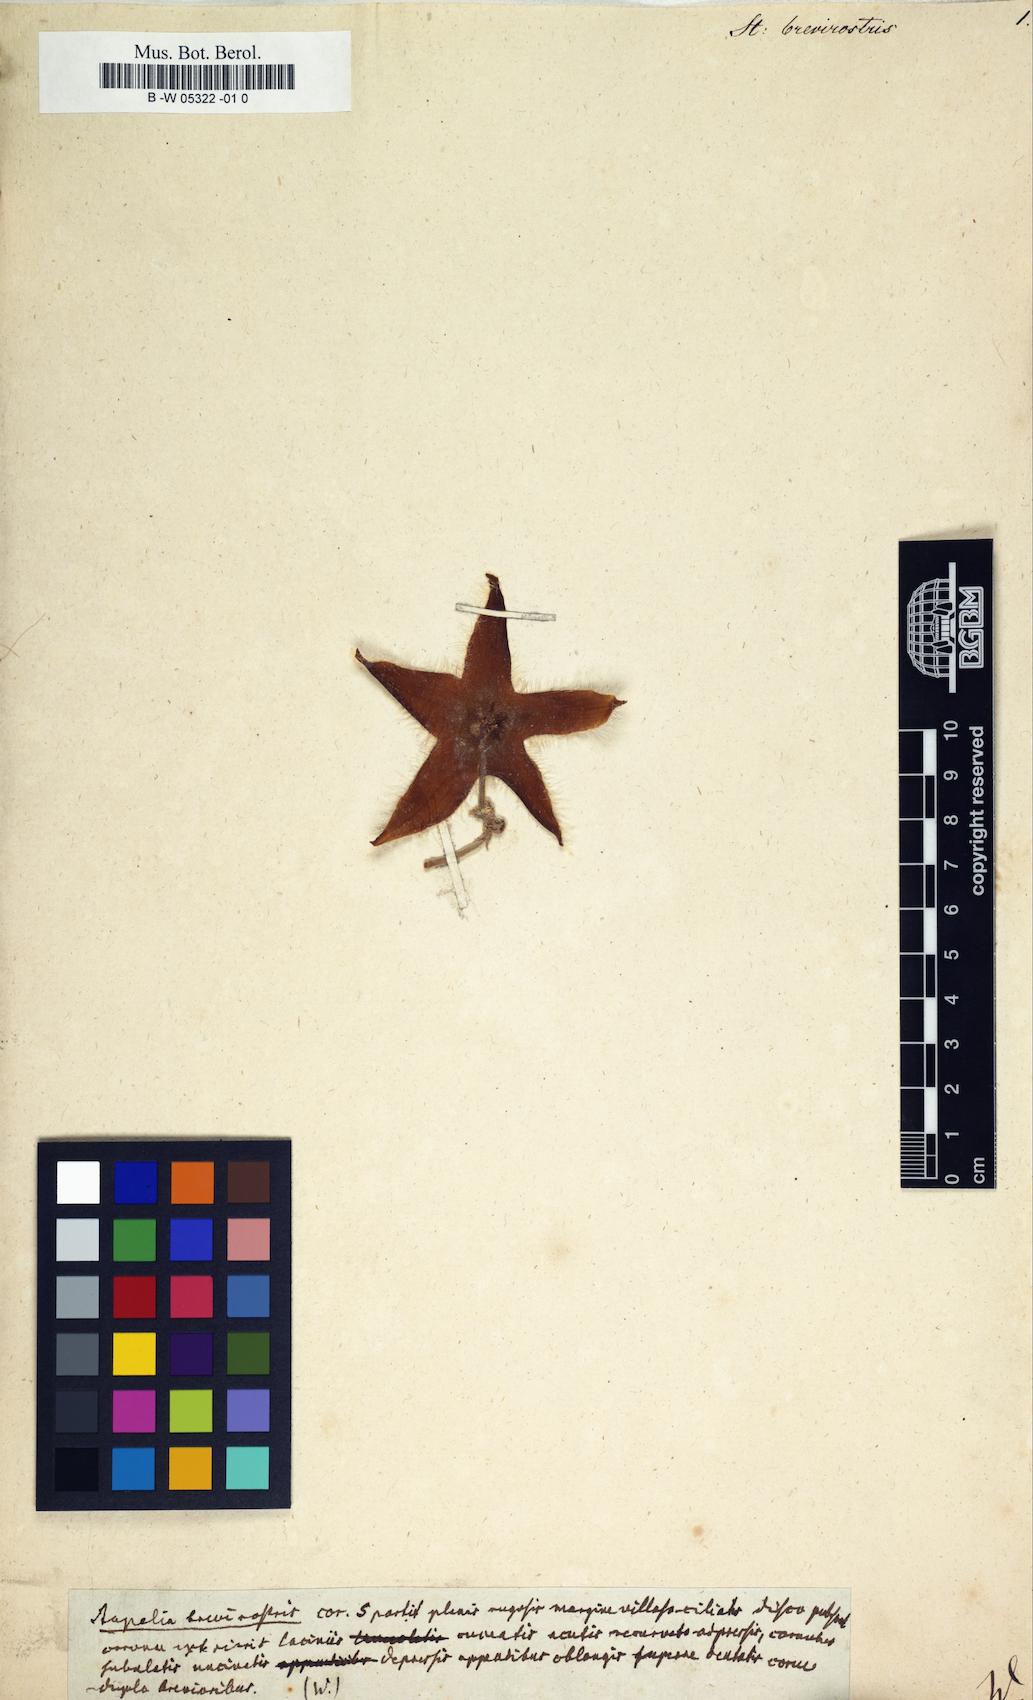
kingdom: Plantae
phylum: Tracheophyta
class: Magnoliopsida
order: Gentianales
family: Apocynaceae
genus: Ceropegia
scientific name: Ceropegia mixta
